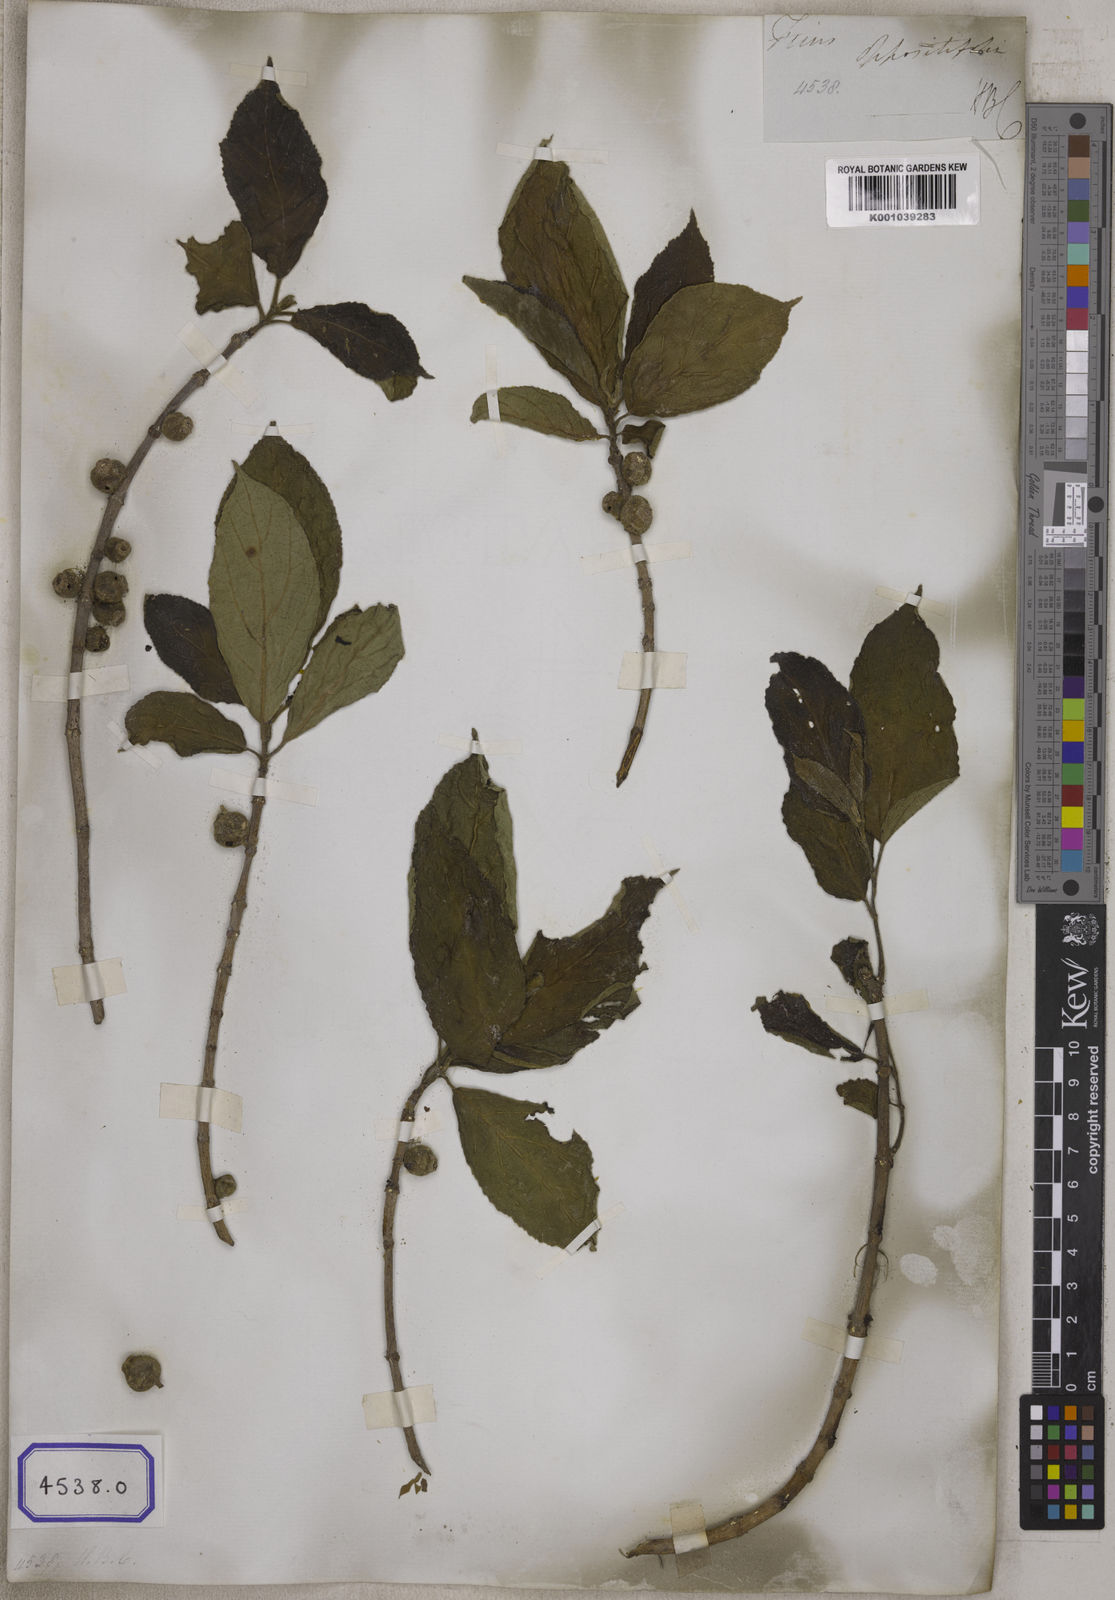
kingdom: Plantae
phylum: Tracheophyta
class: Magnoliopsida
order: Rosales
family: Moraceae
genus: Ficus
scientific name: Ficus hispida
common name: Hairy fig
